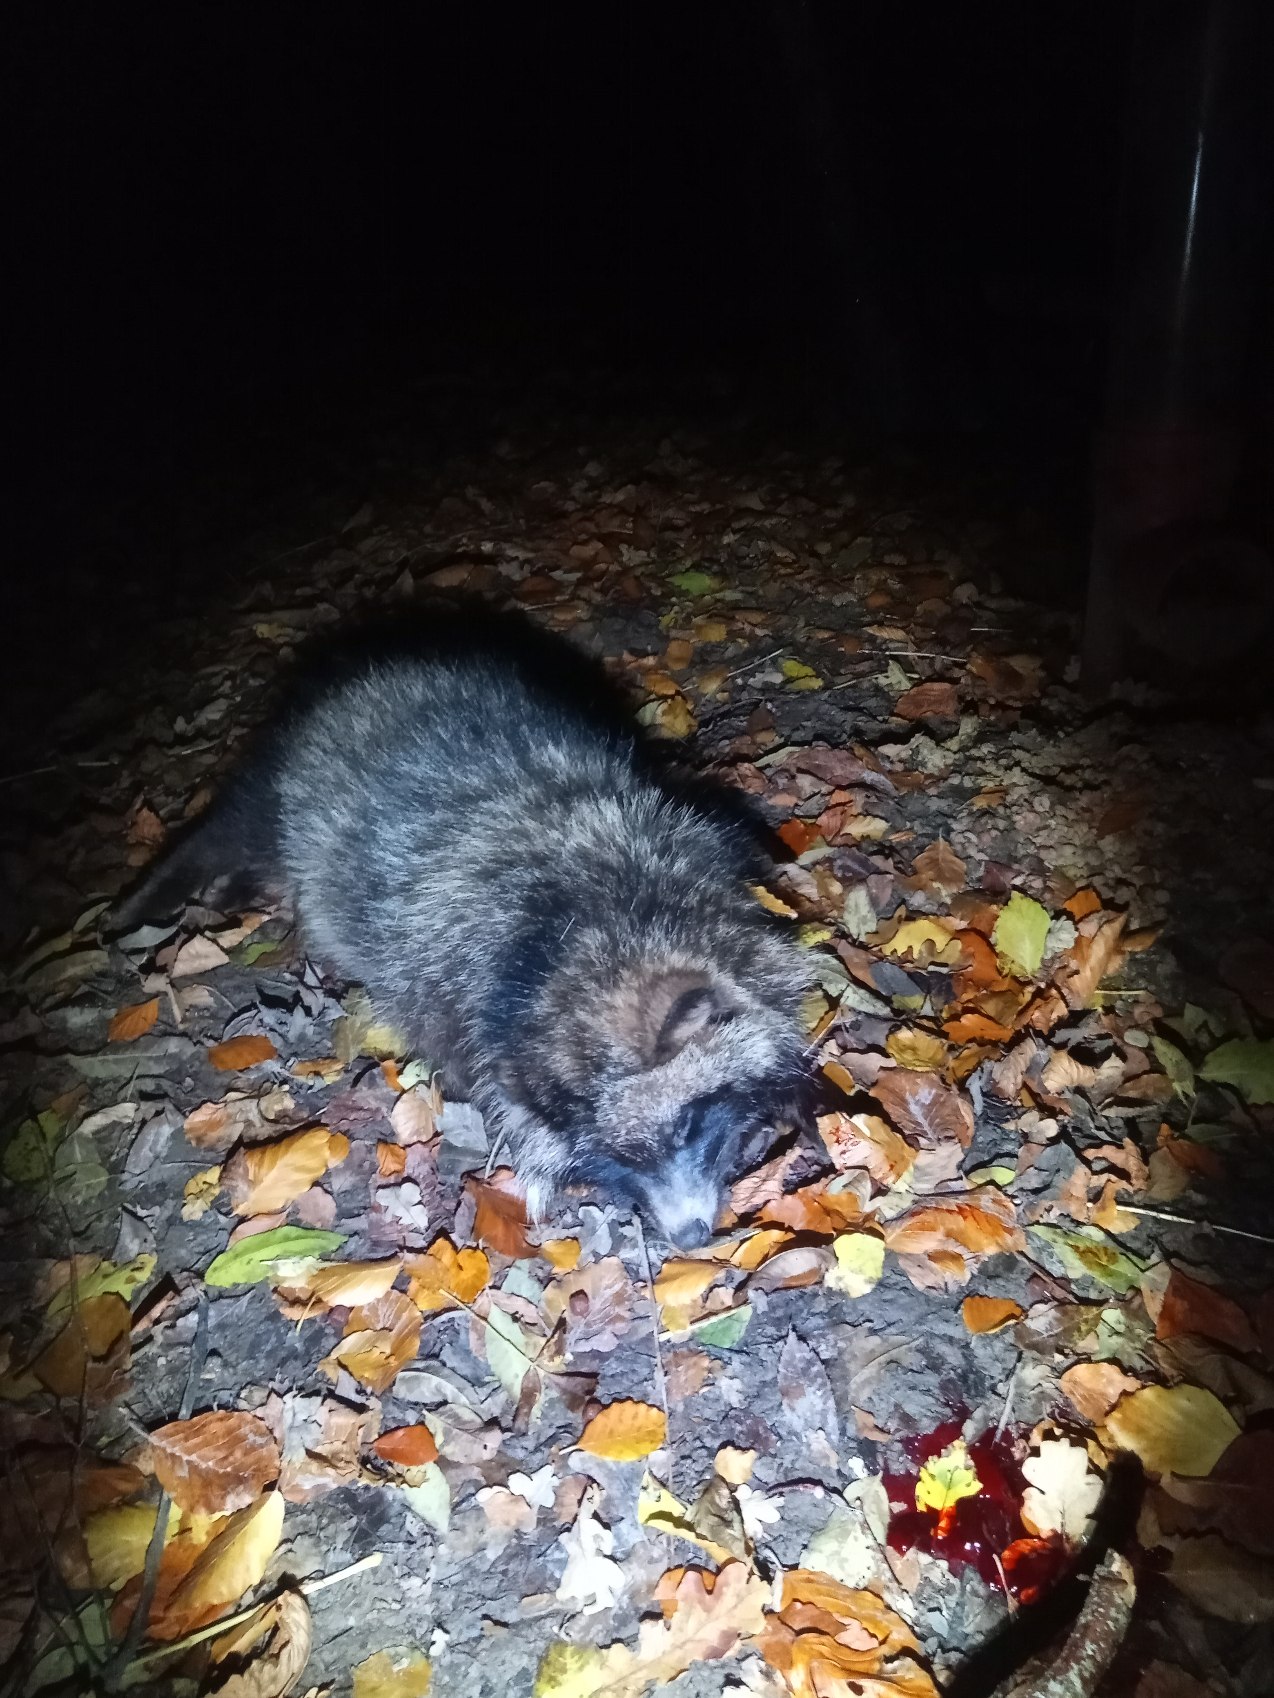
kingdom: Animalia
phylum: Chordata
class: Mammalia
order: Carnivora
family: Canidae
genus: Nyctereutes
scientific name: Nyctereutes procyonoides
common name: Mårhund
